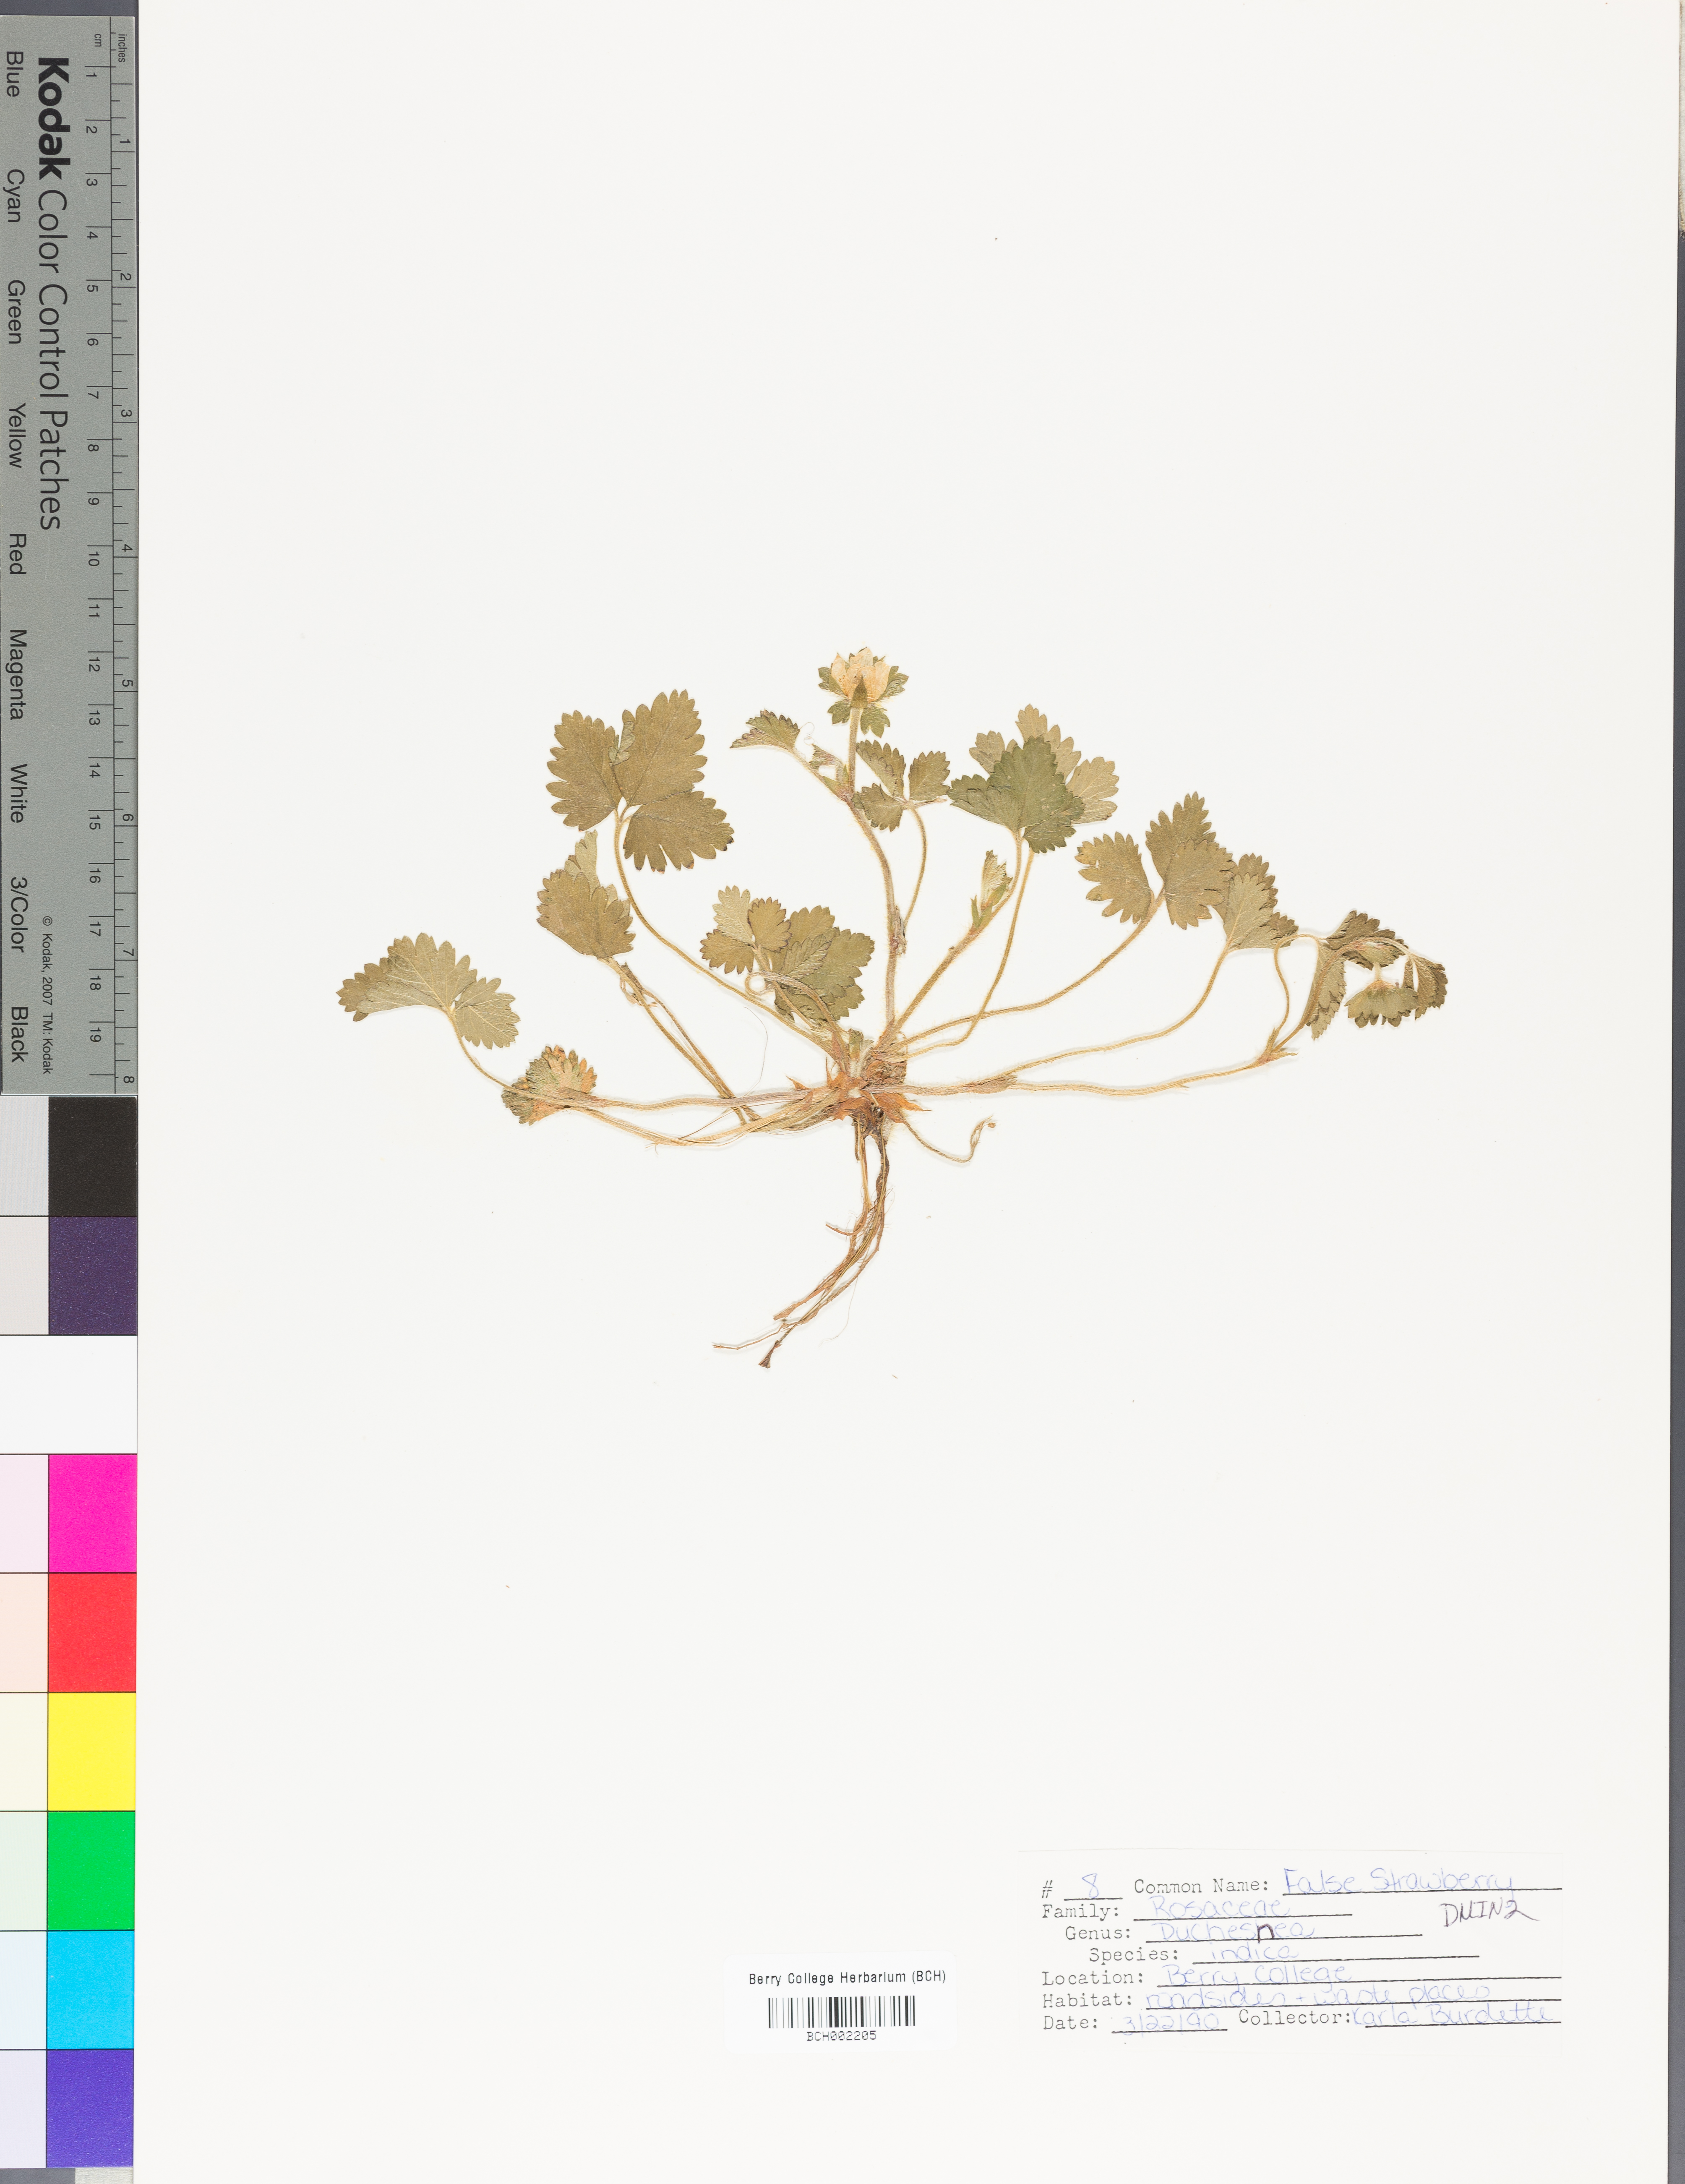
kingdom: Plantae
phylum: Tracheophyta
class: Magnoliopsida
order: Rosales
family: Rosaceae
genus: Potentilla
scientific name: Potentilla indica
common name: Yellow-flowered strawberry
